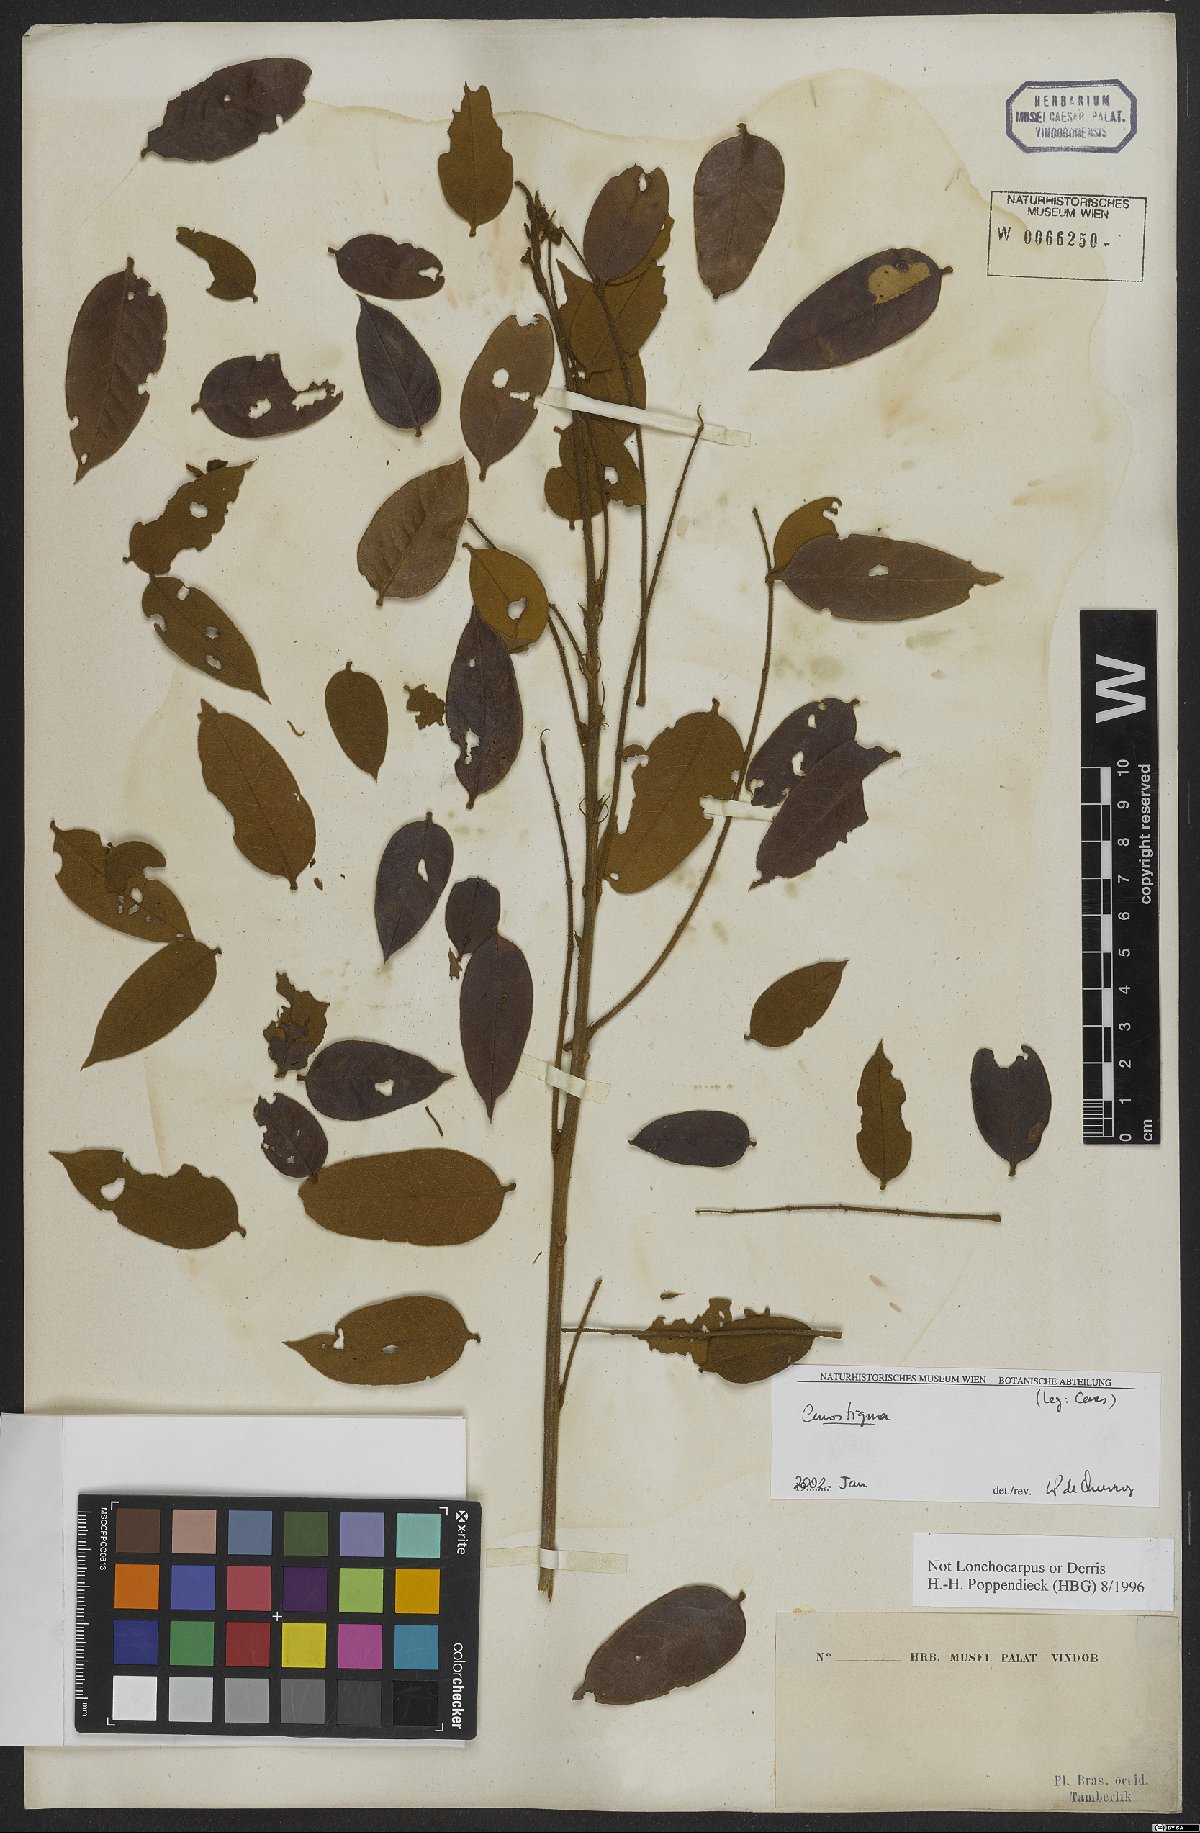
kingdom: Plantae
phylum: Tracheophyta
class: Magnoliopsida
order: Fabales
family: Fabaceae
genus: Cenostigma
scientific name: Cenostigma
